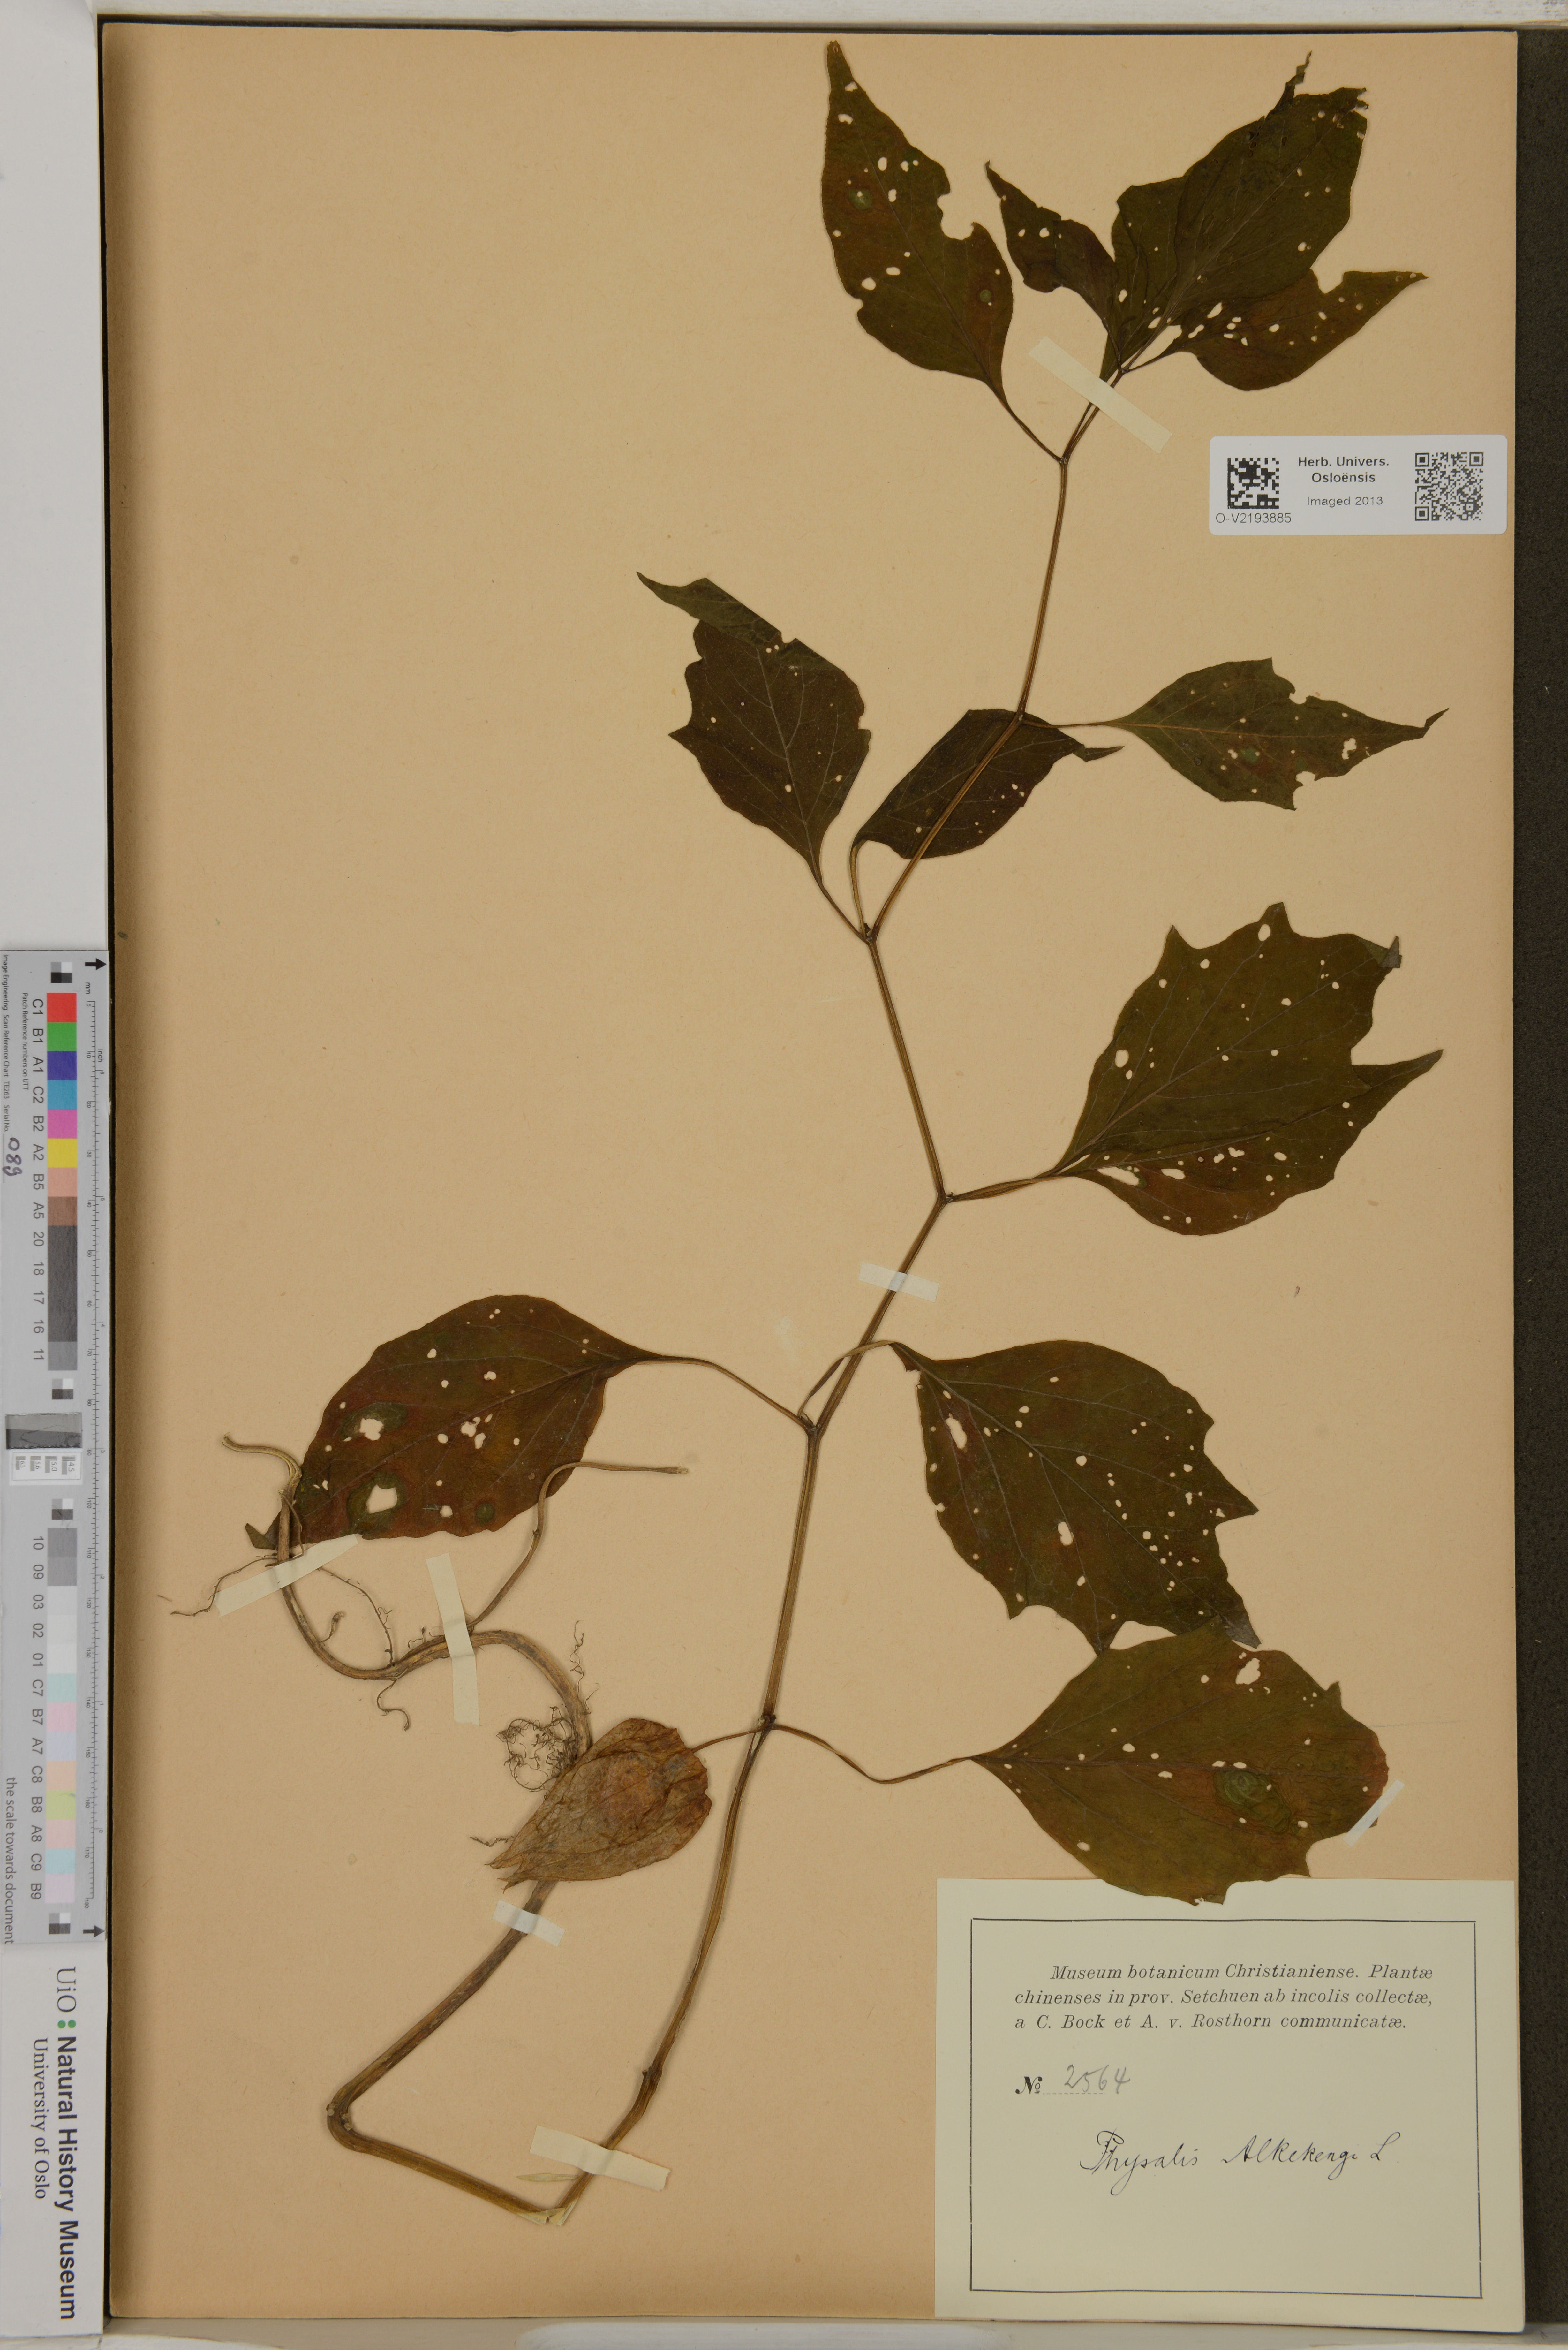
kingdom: Plantae
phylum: Tracheophyta
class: Magnoliopsida
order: Solanales
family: Solanaceae
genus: Alkekengi
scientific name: Alkekengi officinarum
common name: Japanese-lantern
